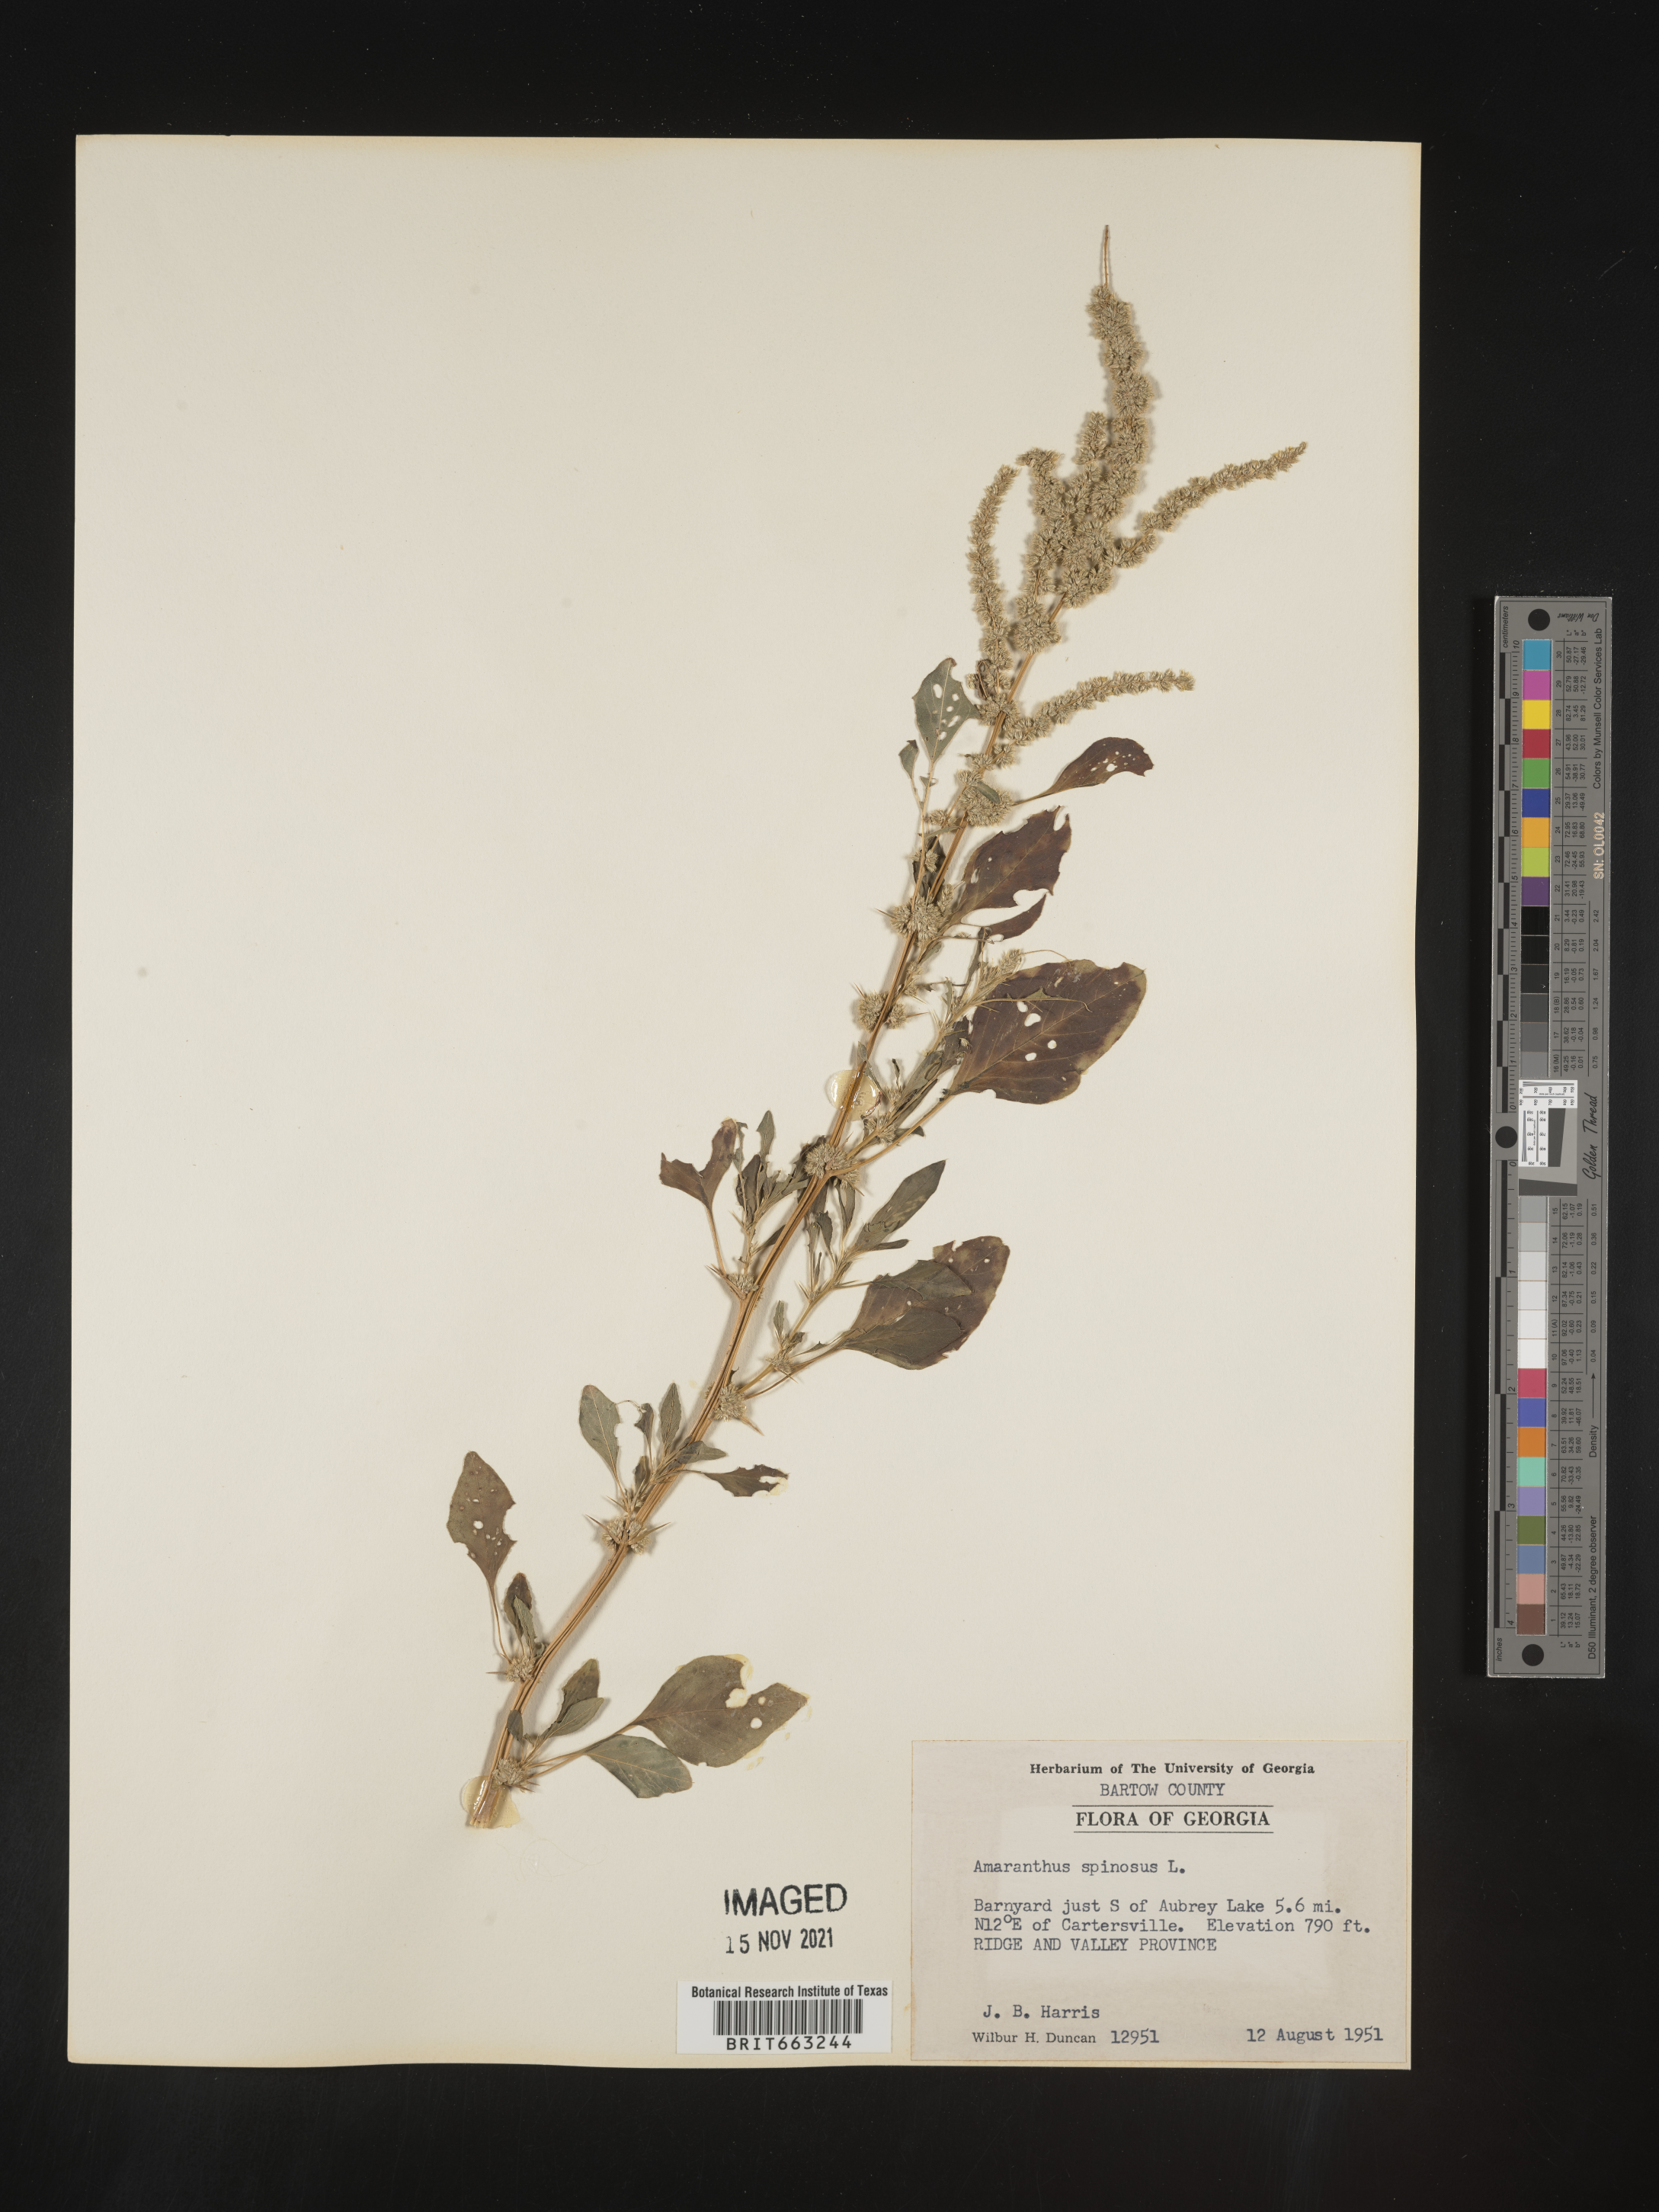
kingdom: Plantae
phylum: Tracheophyta
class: Magnoliopsida
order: Caryophyllales
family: Amaranthaceae
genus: Amaranthus
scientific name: Amaranthus spinosus
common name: Spiny amaranth
